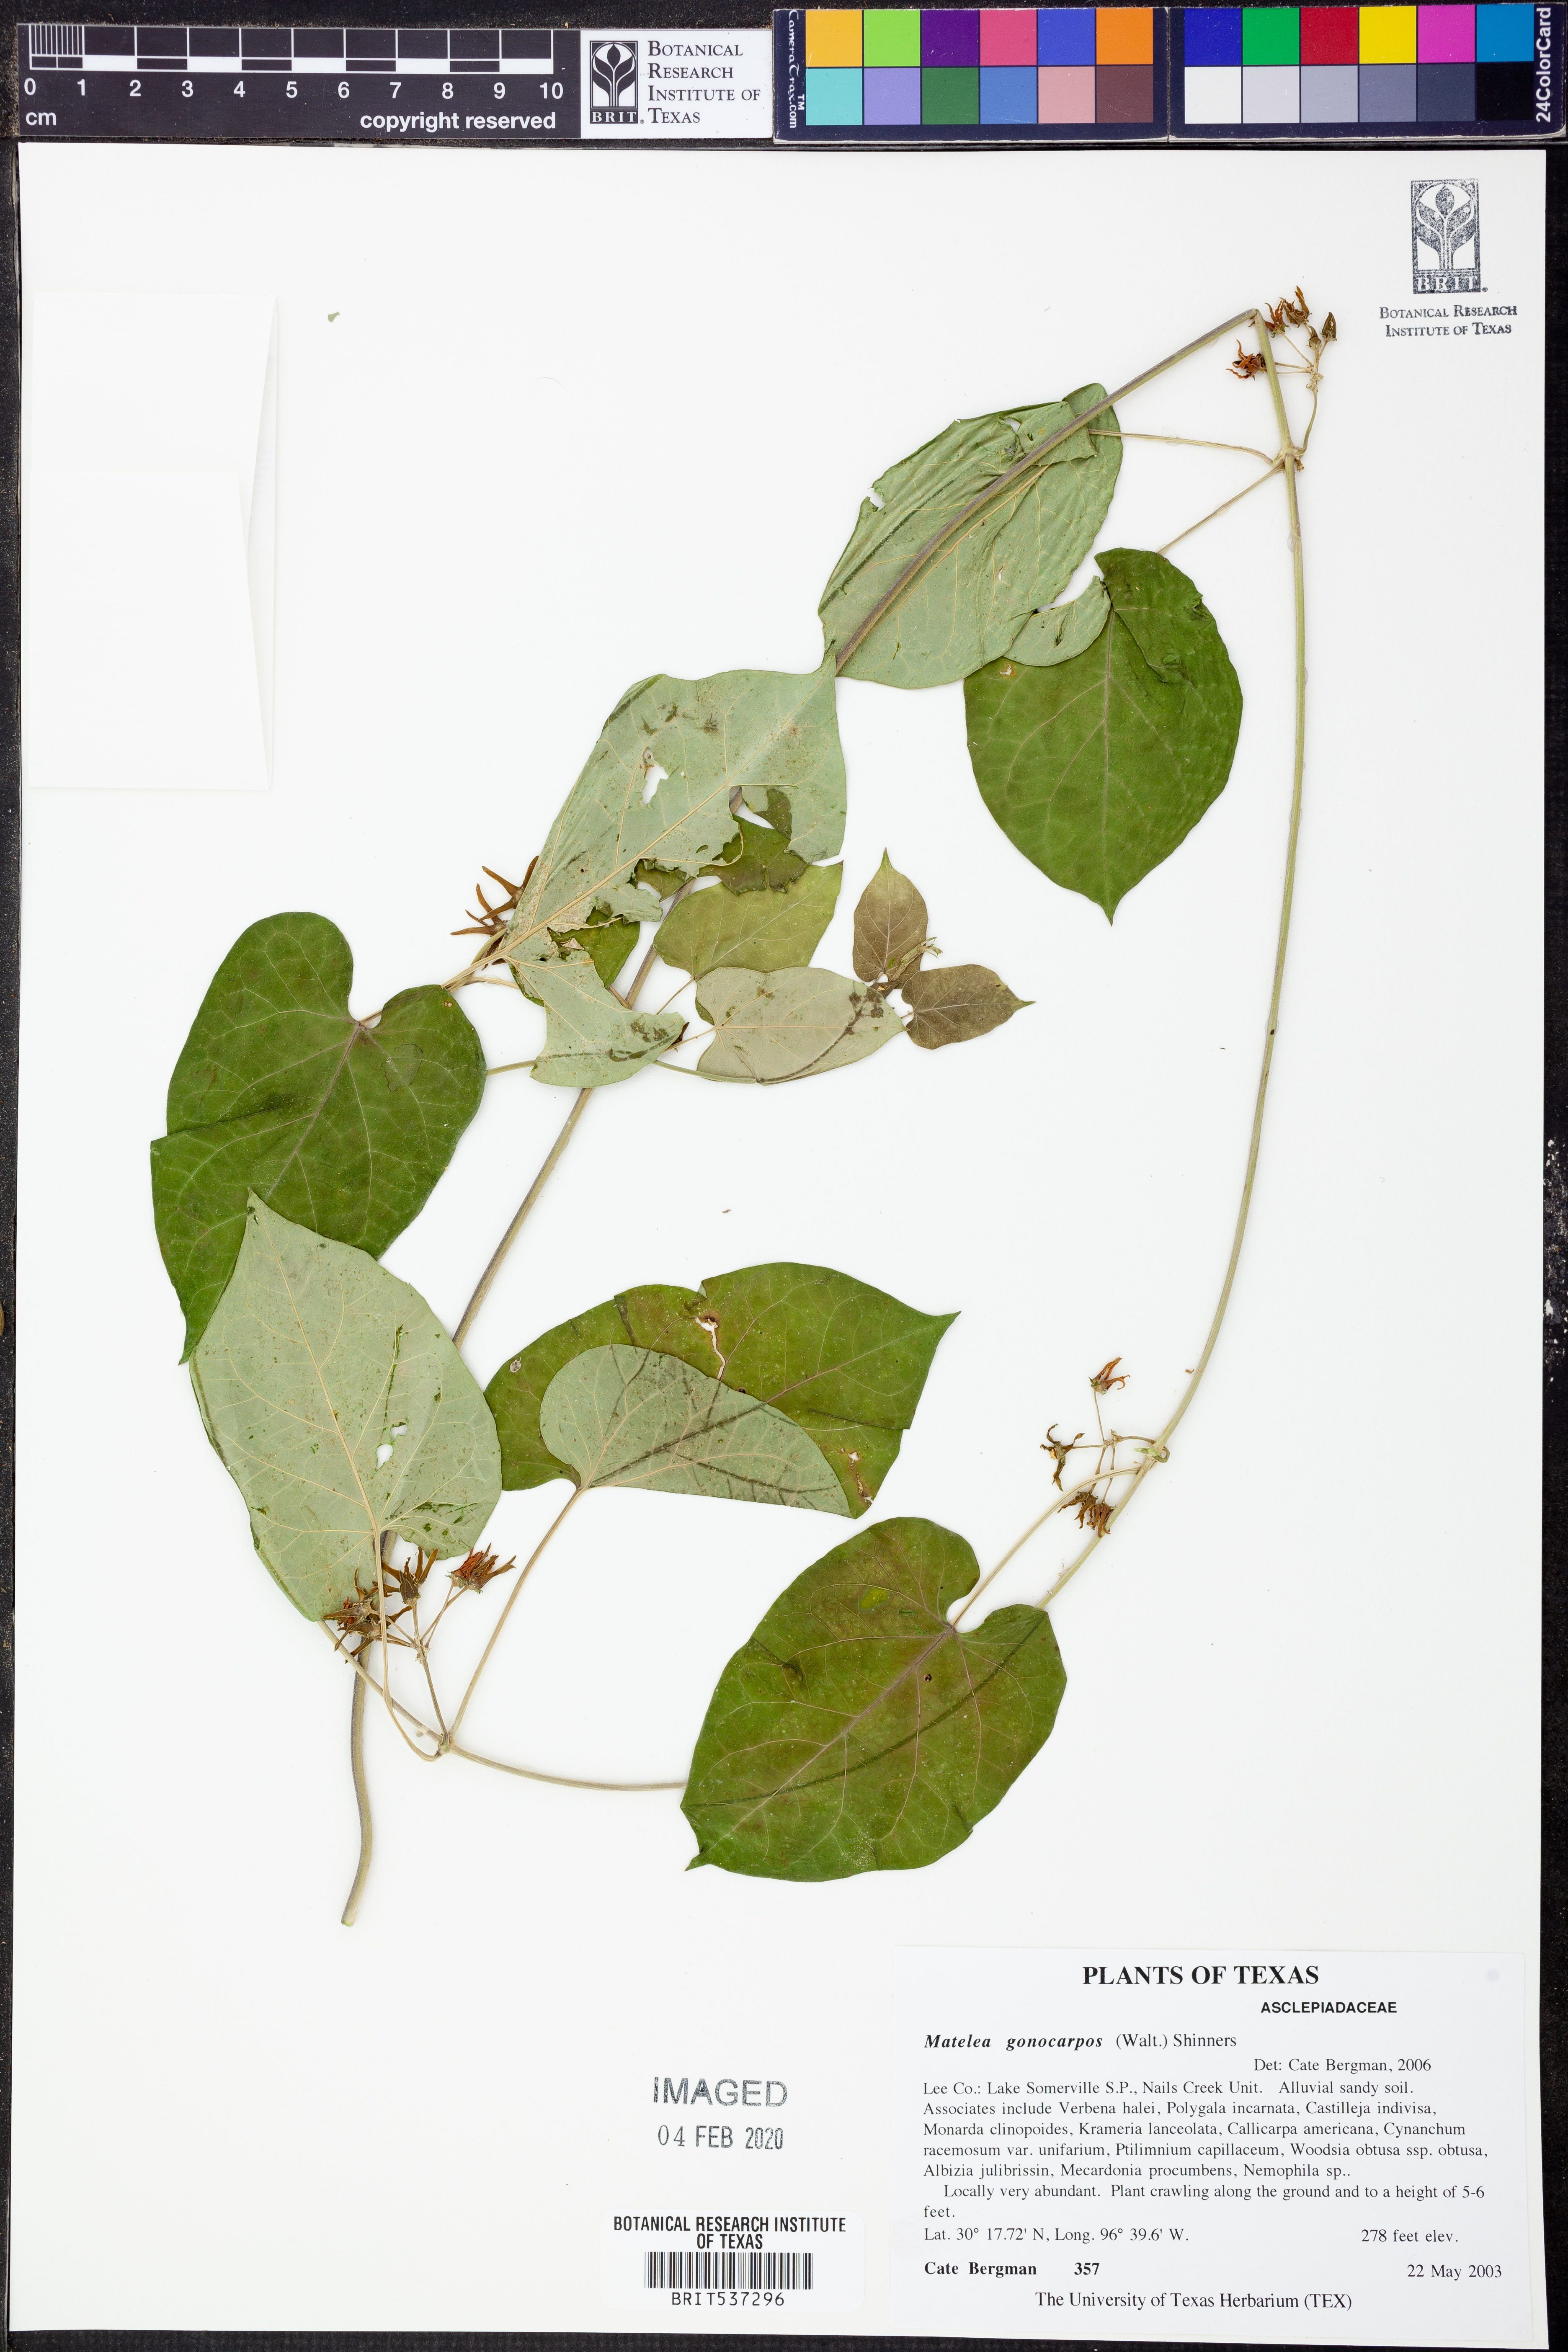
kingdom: Plantae
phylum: Tracheophyta
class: Magnoliopsida
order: Gentianales
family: Apocynaceae
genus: Gonolobus
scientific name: Gonolobus gonocarpus
